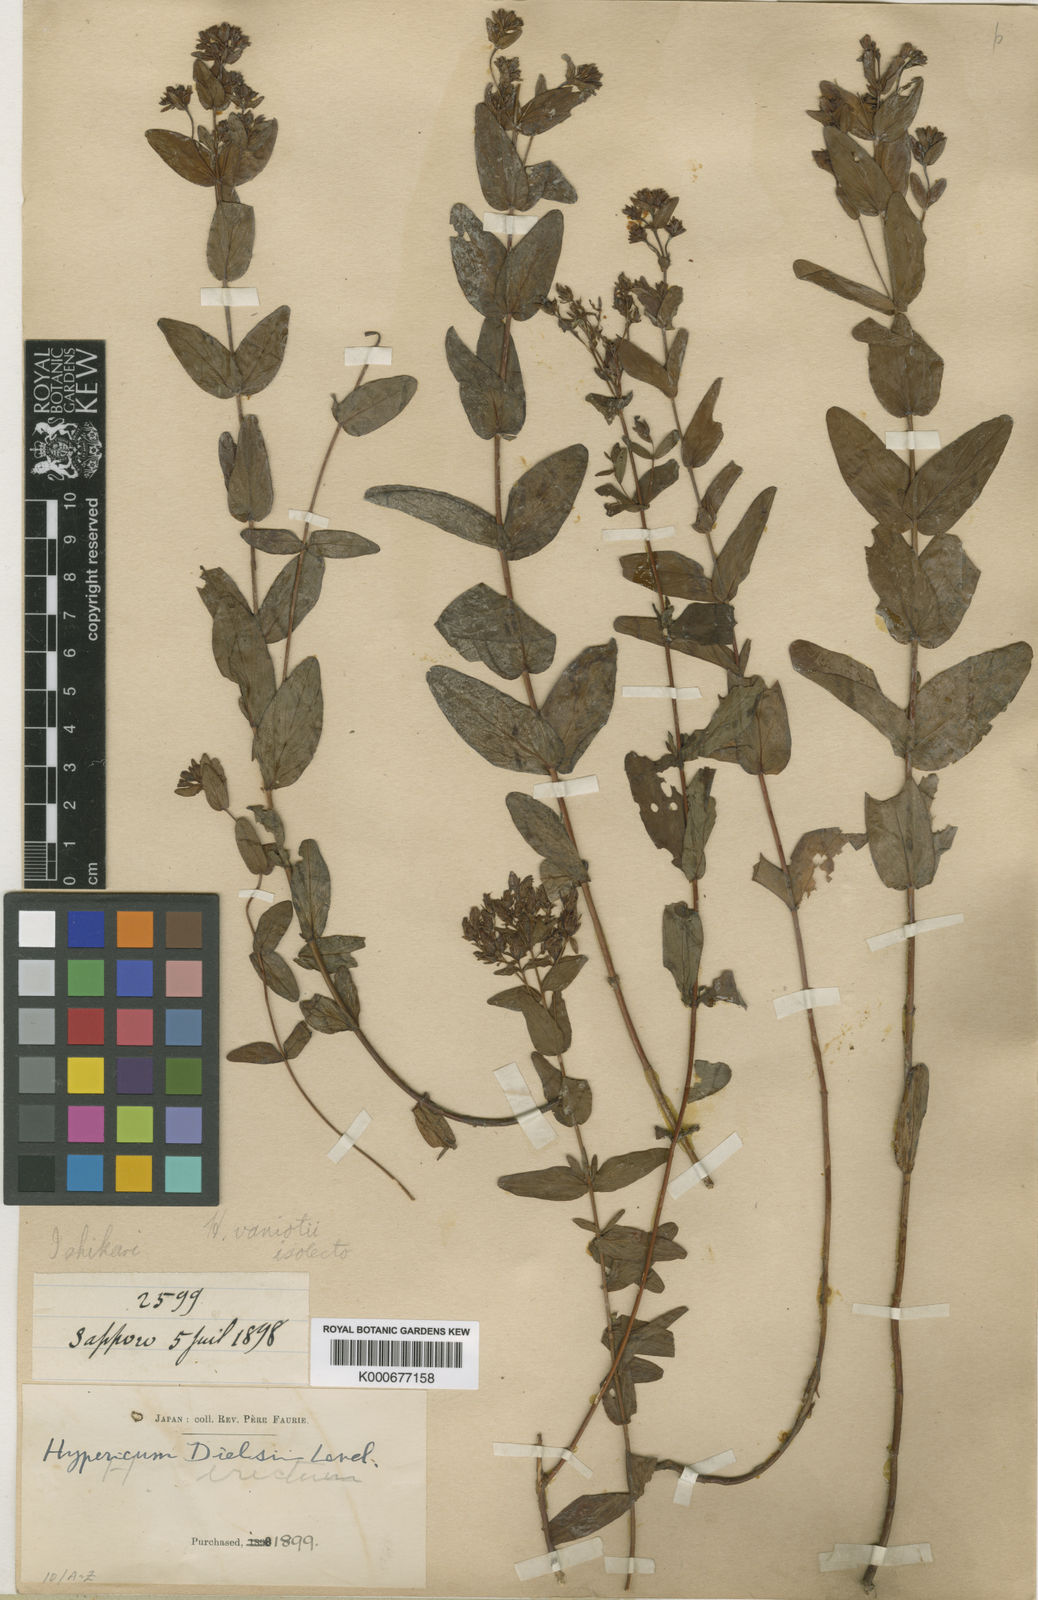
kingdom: Plantae
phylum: Tracheophyta
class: Magnoliopsida
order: Malpighiales
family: Hypericaceae
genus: Hypericum
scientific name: Hypericum erectum
